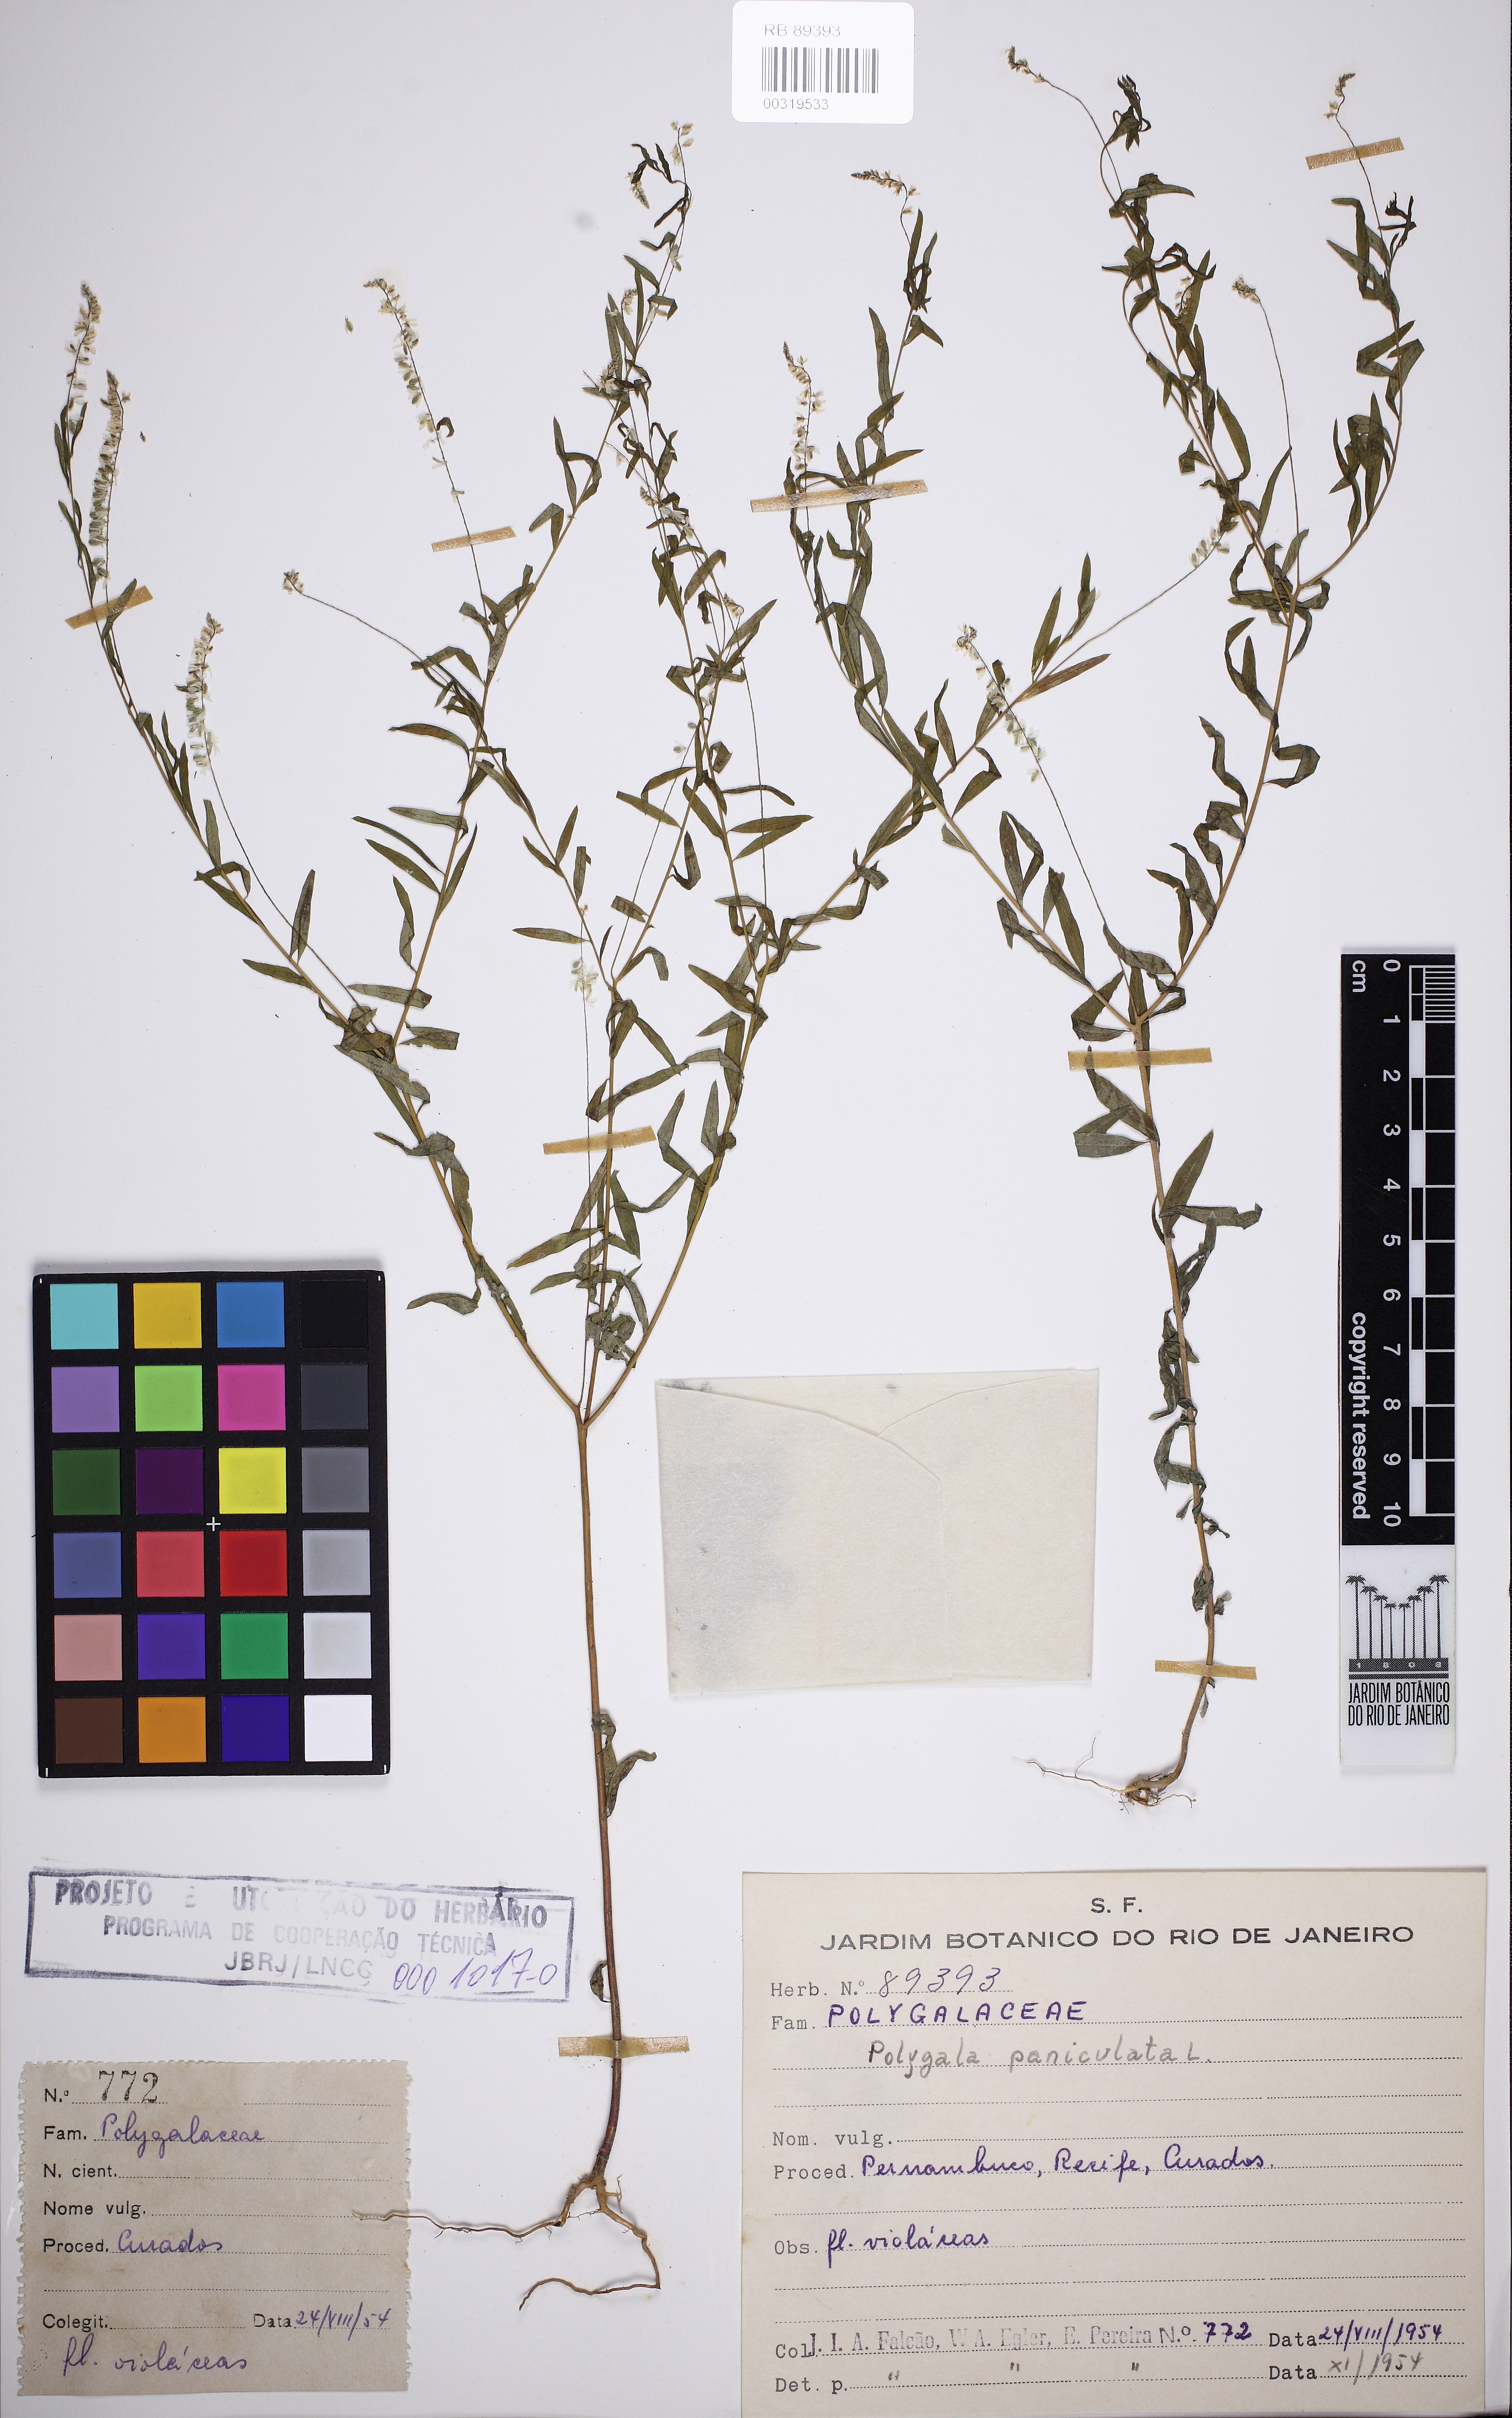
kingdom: Plantae
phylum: Tracheophyta
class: Magnoliopsida
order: Fabales
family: Polygalaceae
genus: Polygala
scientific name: Polygala paniculata
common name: Orosne
